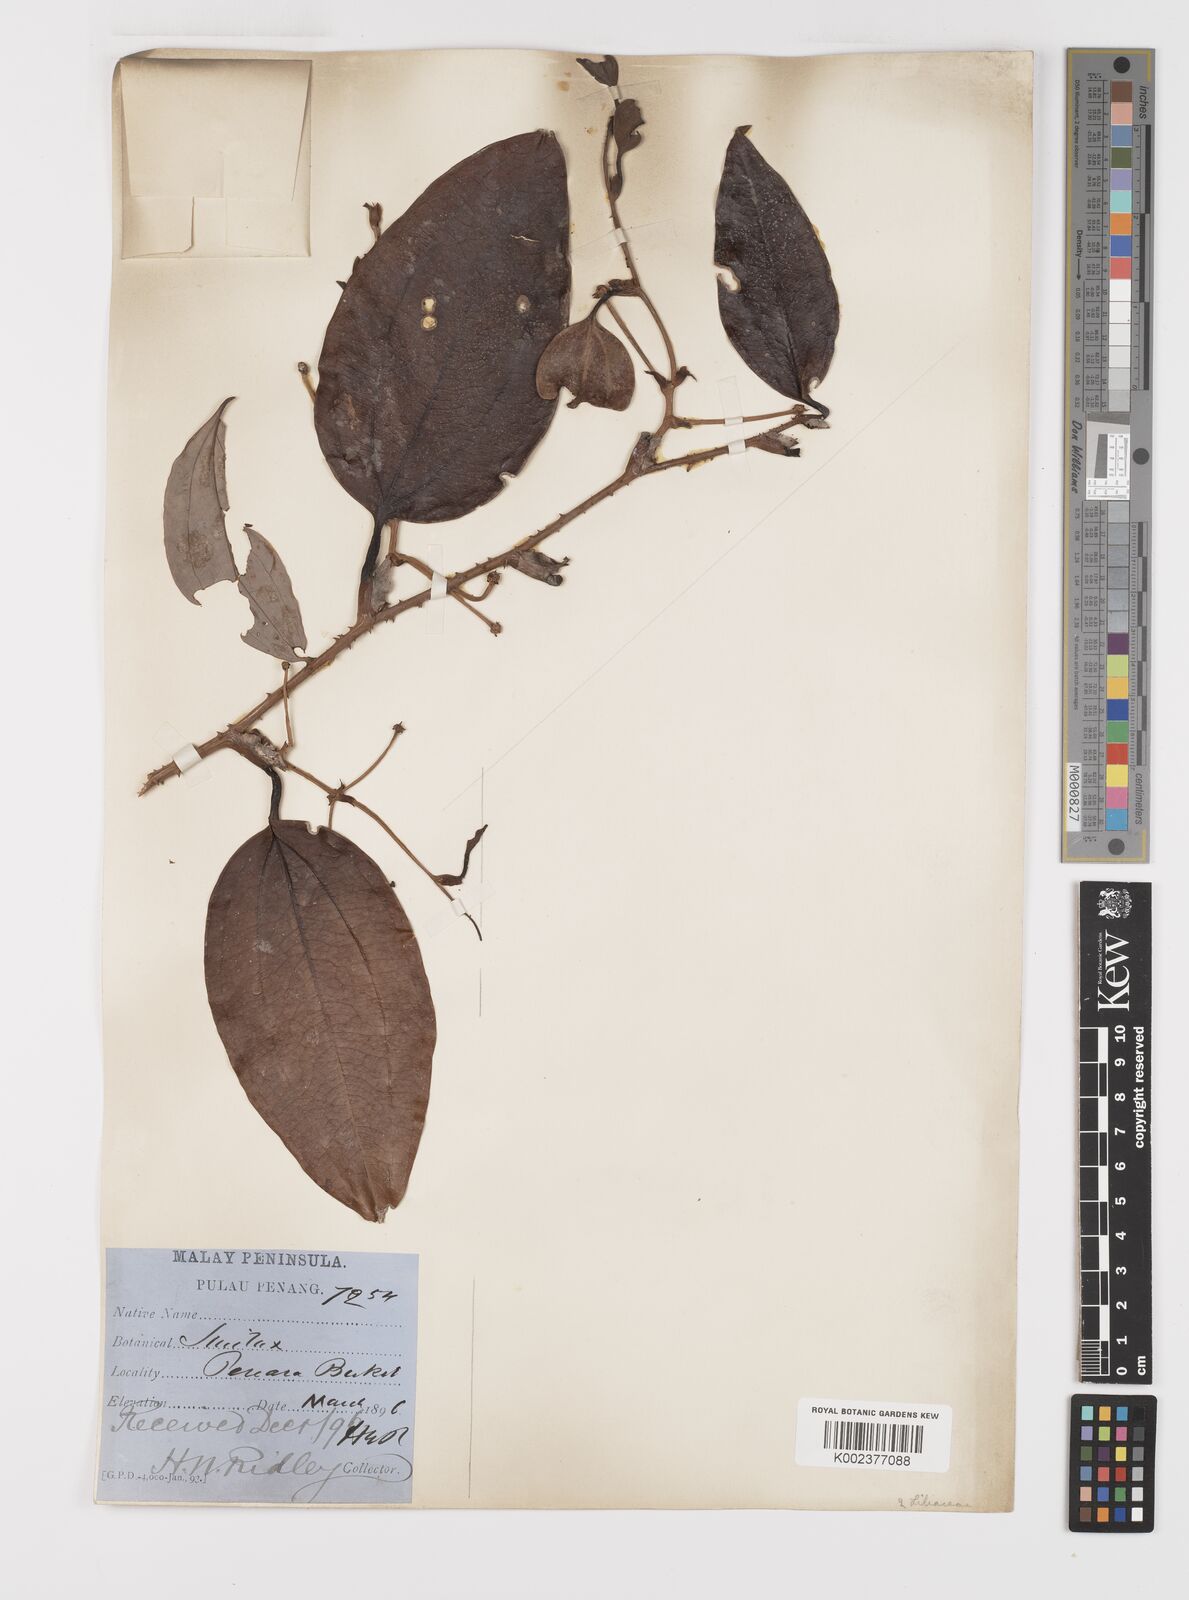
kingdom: Plantae
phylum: Tracheophyta
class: Liliopsida
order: Liliales
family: Smilacaceae
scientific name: Smilacaceae
